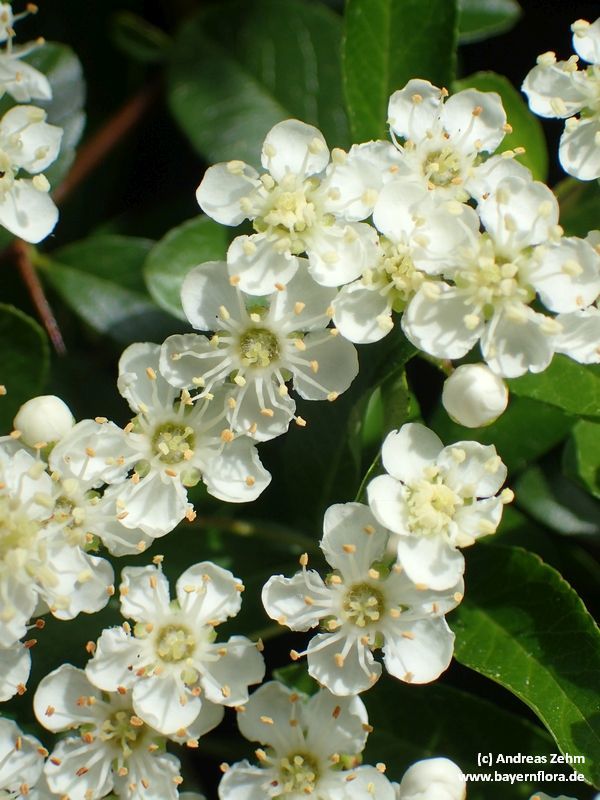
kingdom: Plantae
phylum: Tracheophyta
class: Magnoliopsida
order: Rosales
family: Rosaceae
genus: Pyracantha
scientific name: Pyracantha coccinea
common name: Firethorn
